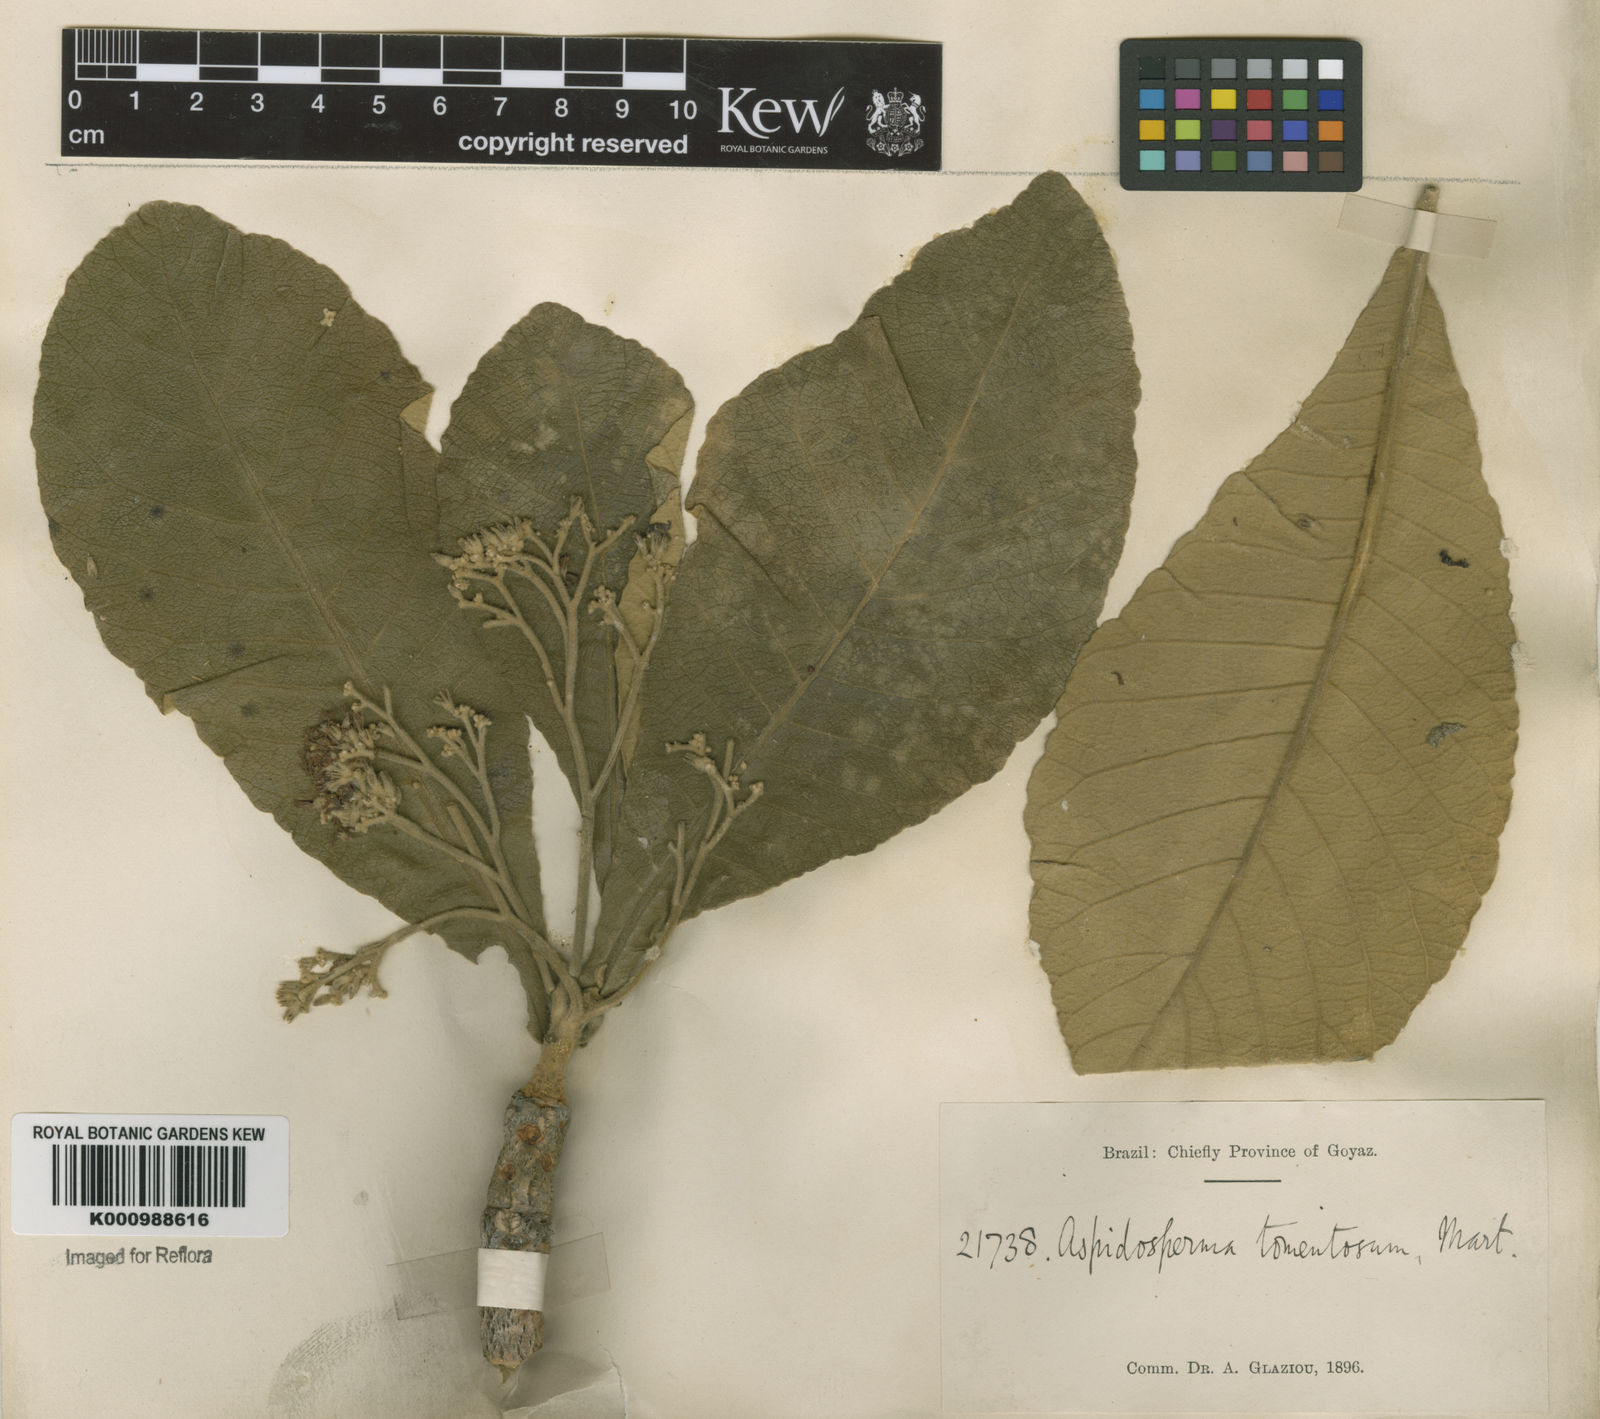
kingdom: Plantae
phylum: Tracheophyta
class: Magnoliopsida
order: Gentianales
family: Apocynaceae
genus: Aspidosperma
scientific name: Aspidosperma tomentosum
